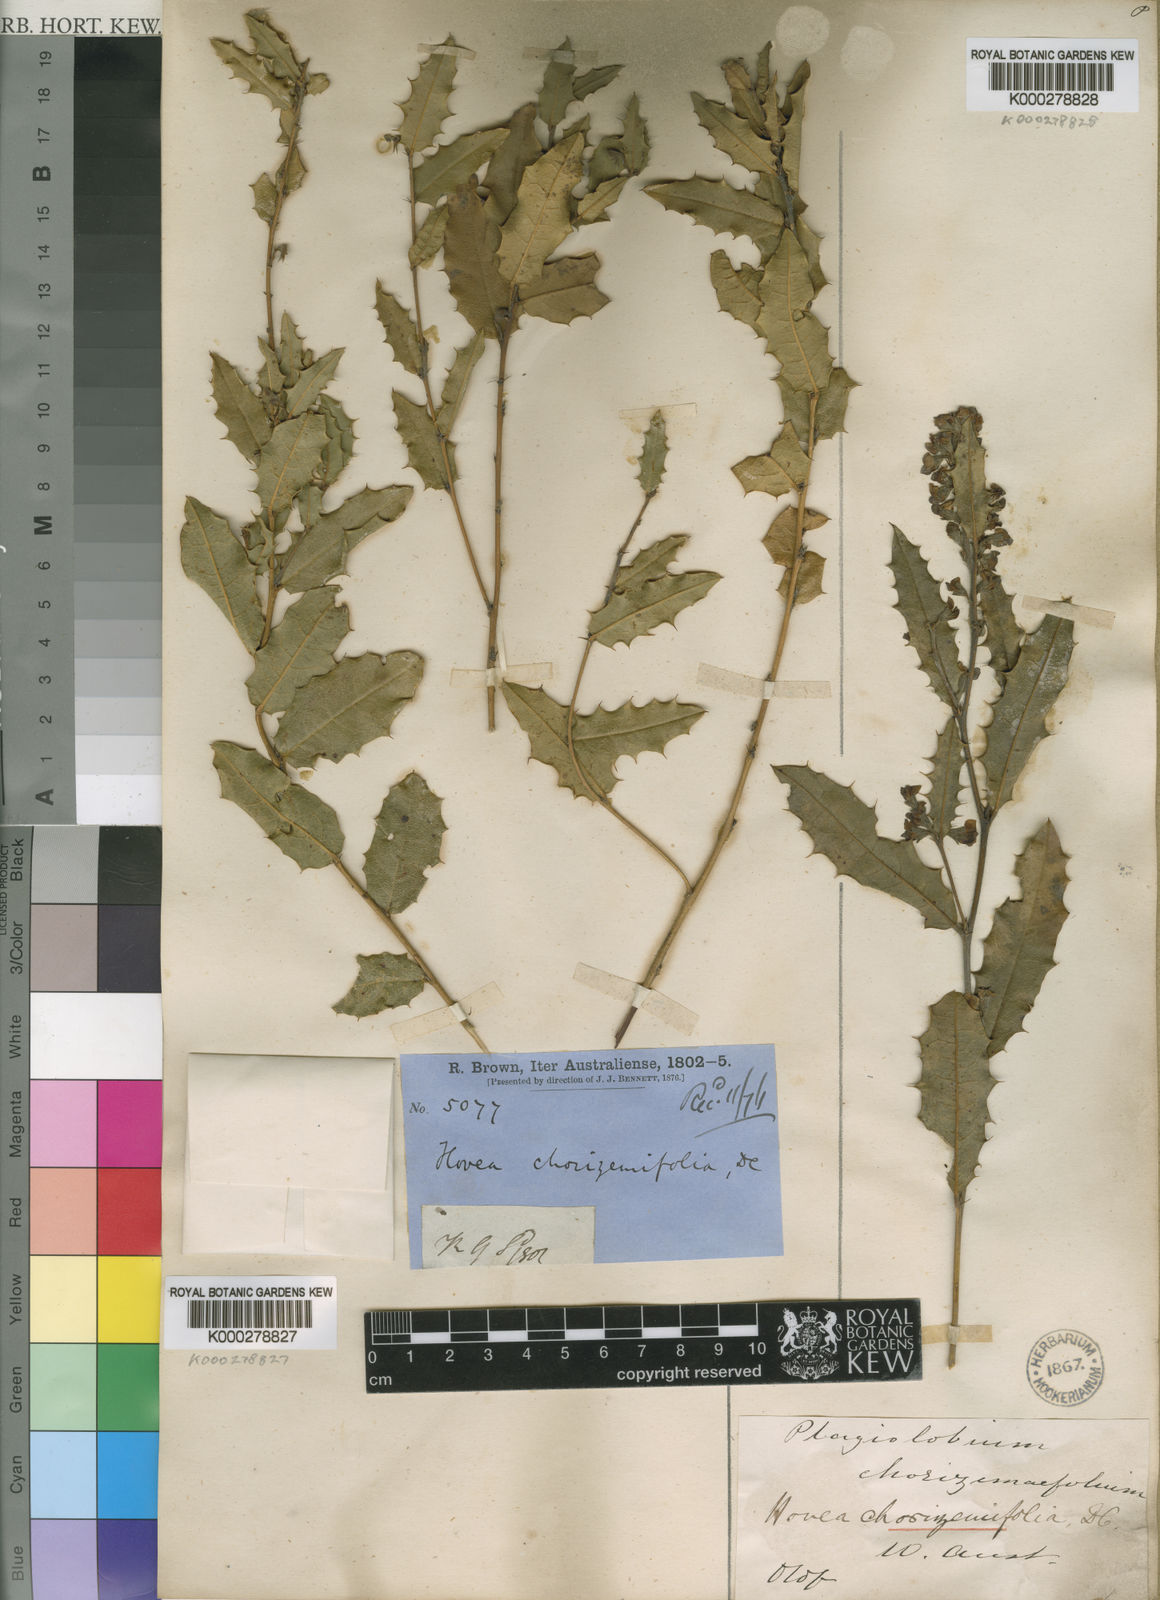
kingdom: Plantae
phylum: Tracheophyta
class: Magnoliopsida
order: Fabales
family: Fabaceae
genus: Hovea
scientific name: Hovea chorizemifolia
